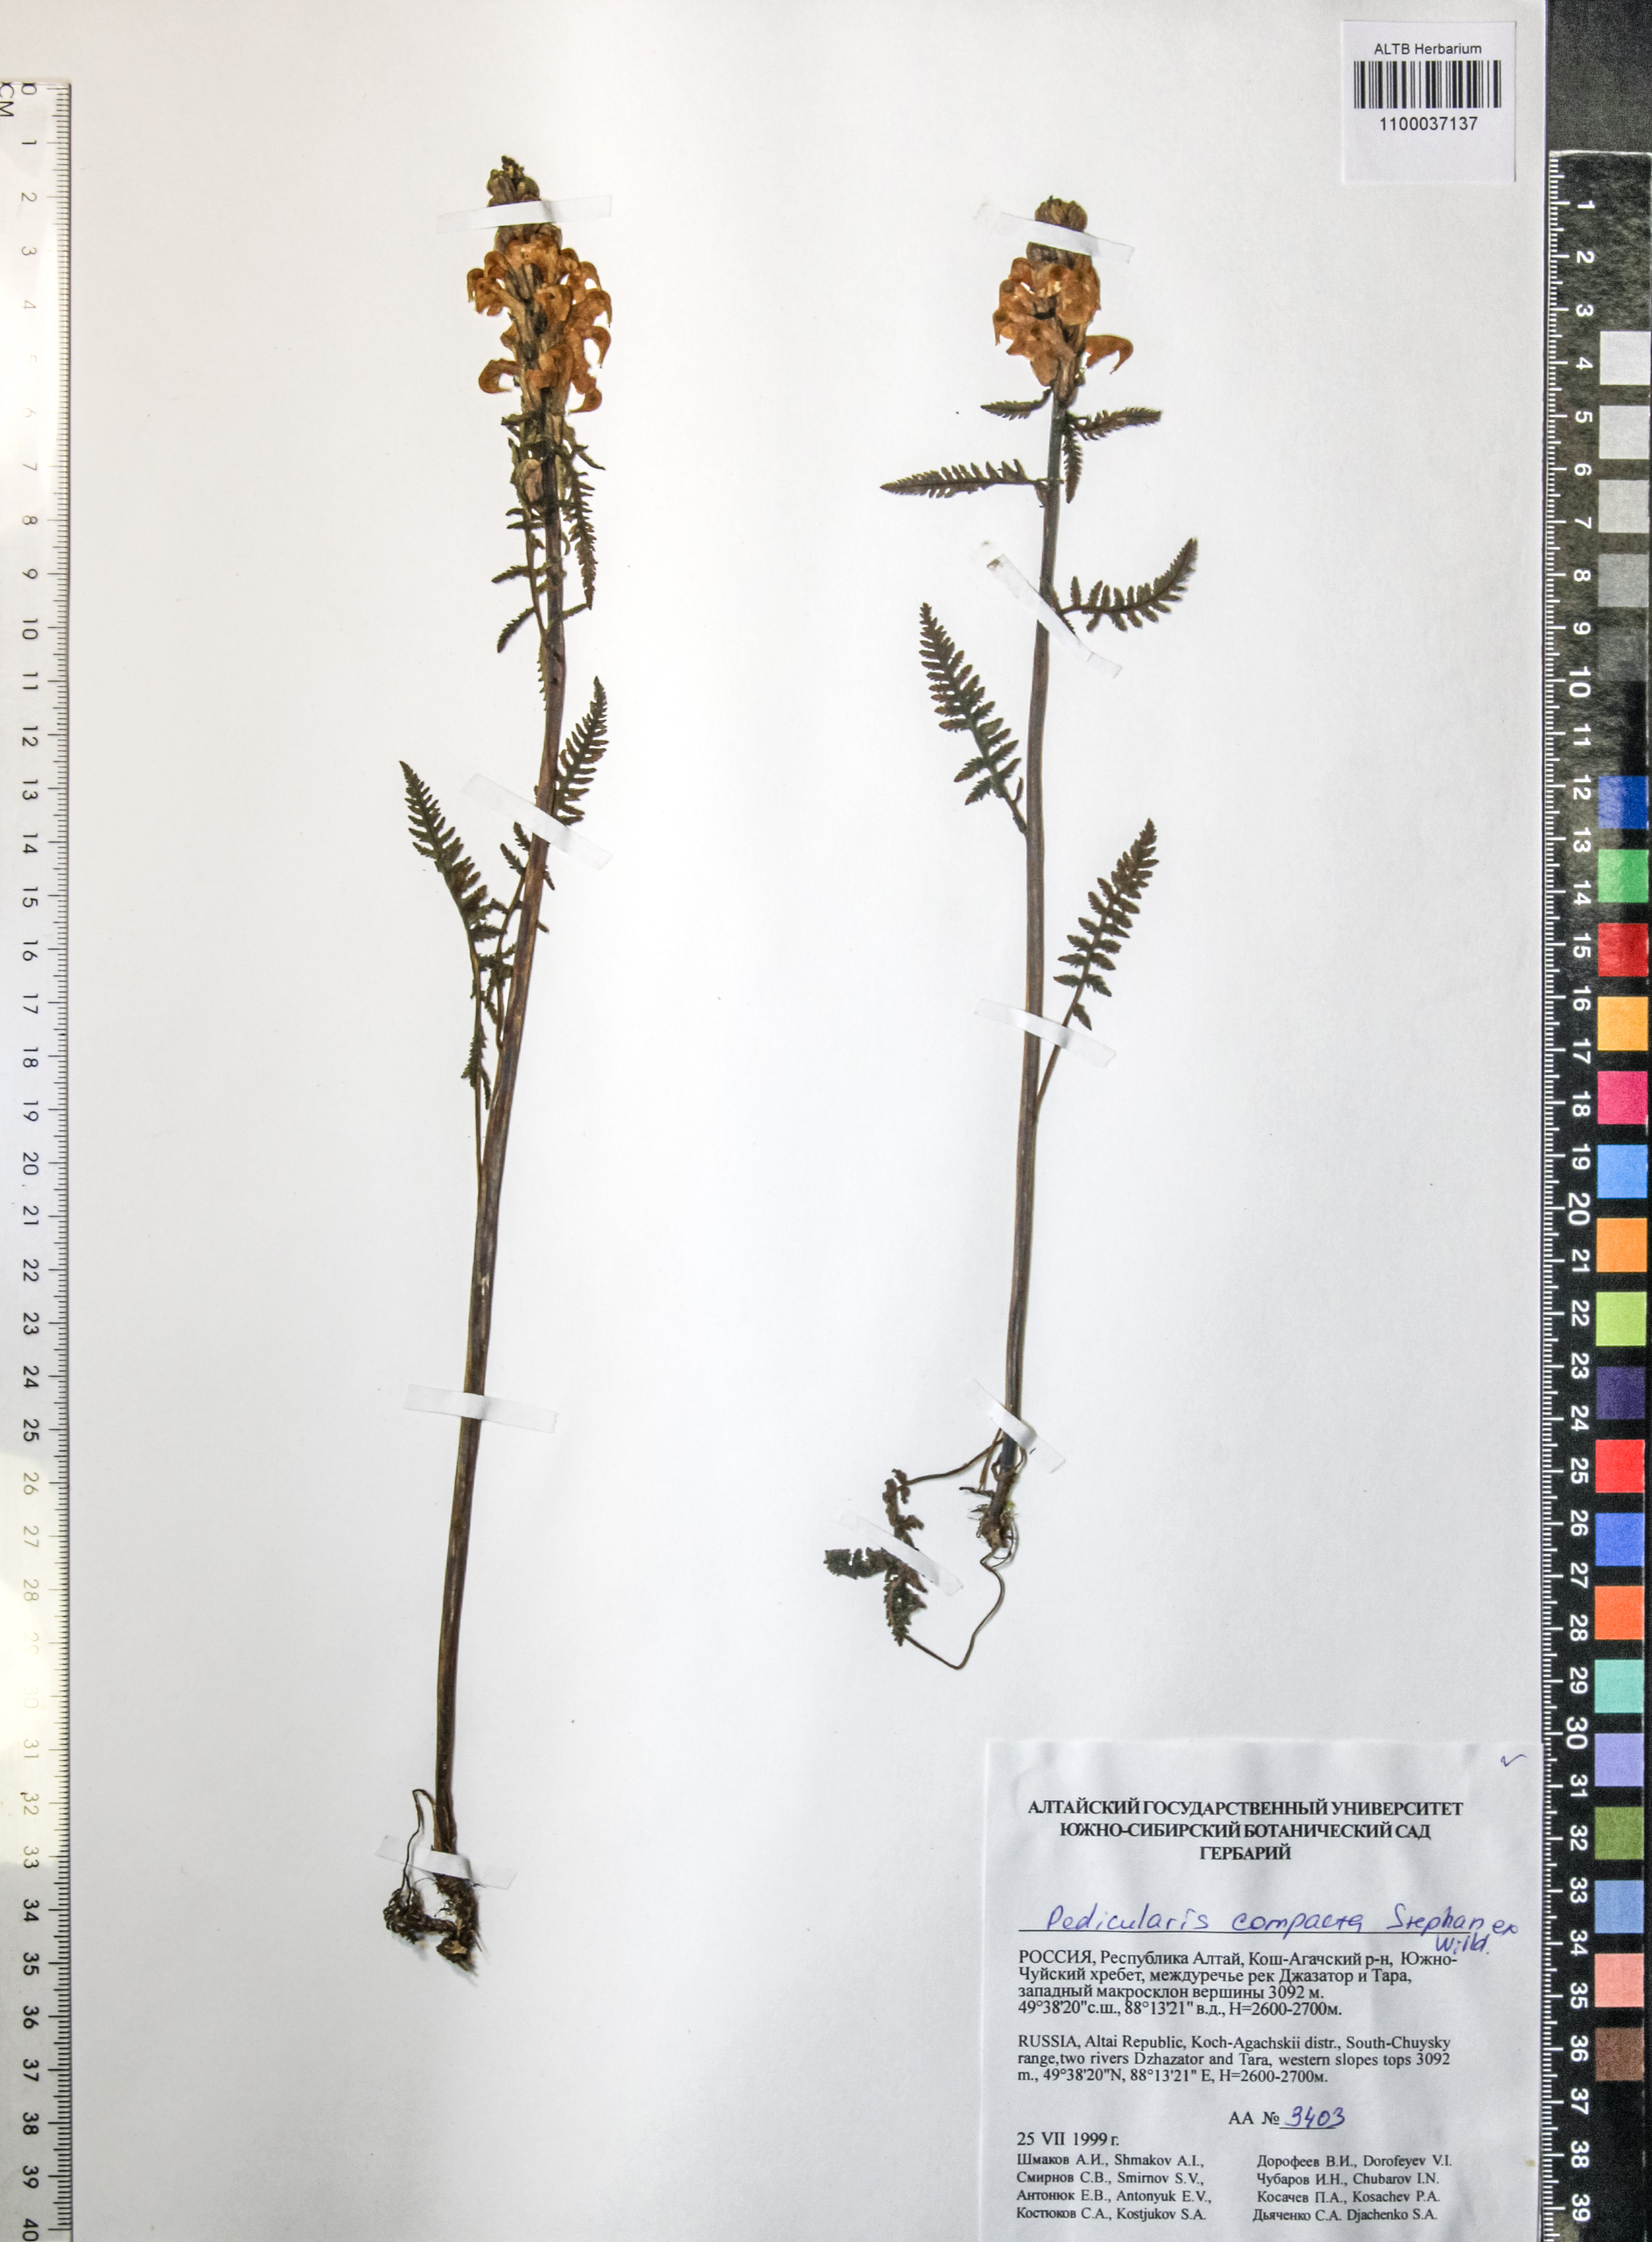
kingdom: Plantae
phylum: Tracheophyta
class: Magnoliopsida
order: Lamiales
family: Orobanchaceae
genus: Pedicularis
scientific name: Pedicularis compacta
